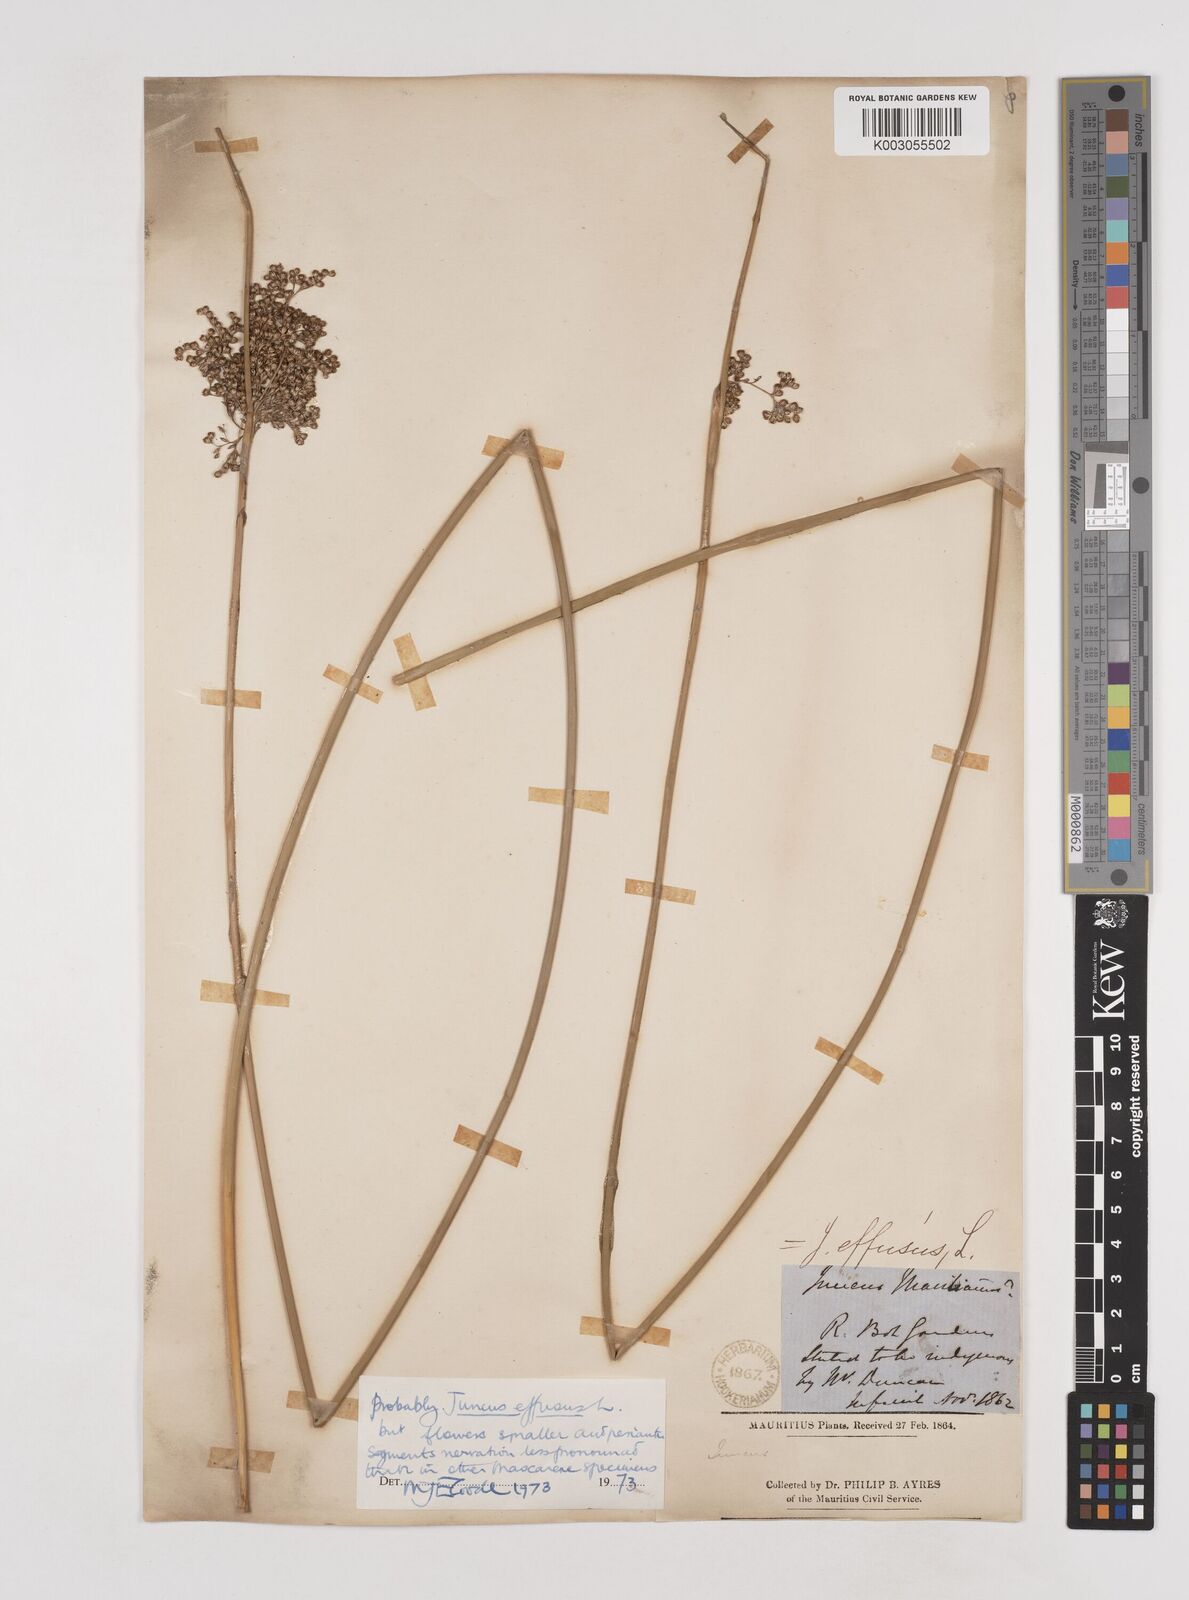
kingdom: Plantae
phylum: Tracheophyta
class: Liliopsida
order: Poales
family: Juncaceae
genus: Juncus
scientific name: Juncus effusus
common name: Soft rush
